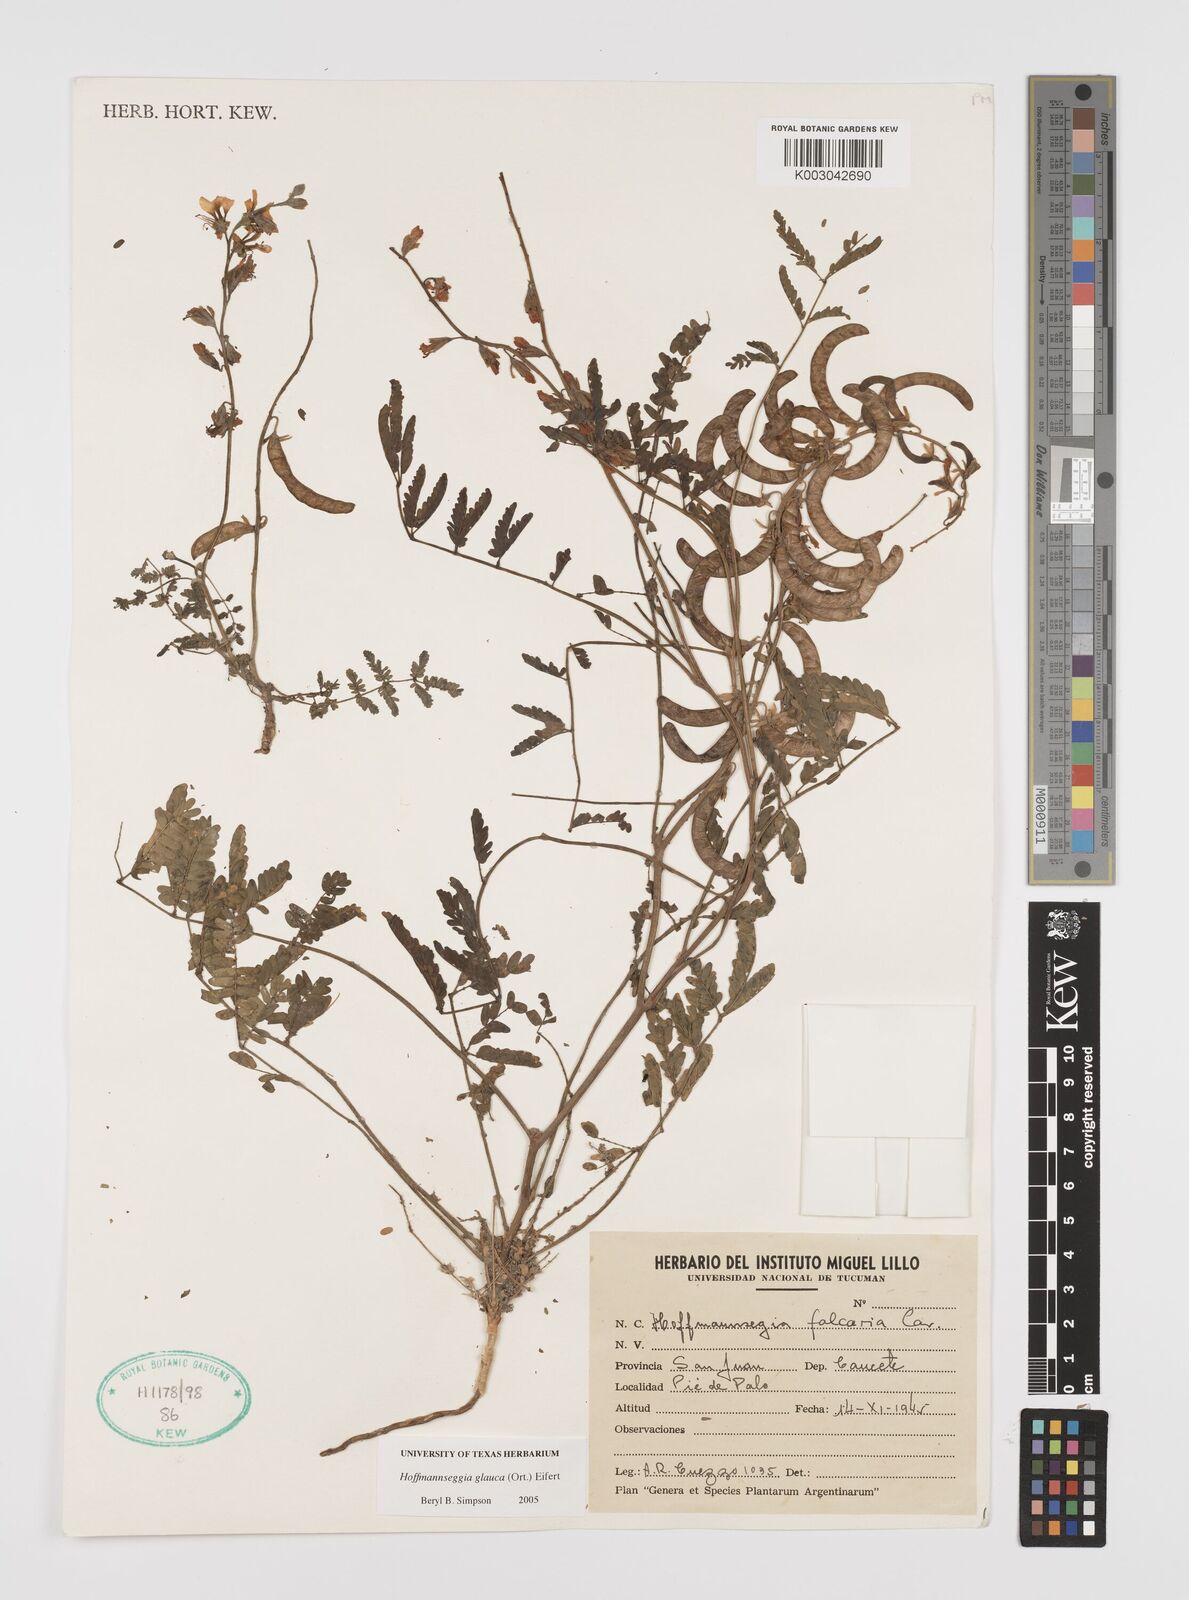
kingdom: Plantae
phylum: Tracheophyta
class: Magnoliopsida
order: Fabales
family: Fabaceae
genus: Hoffmannseggia
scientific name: Hoffmannseggia glauca
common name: Pignut
